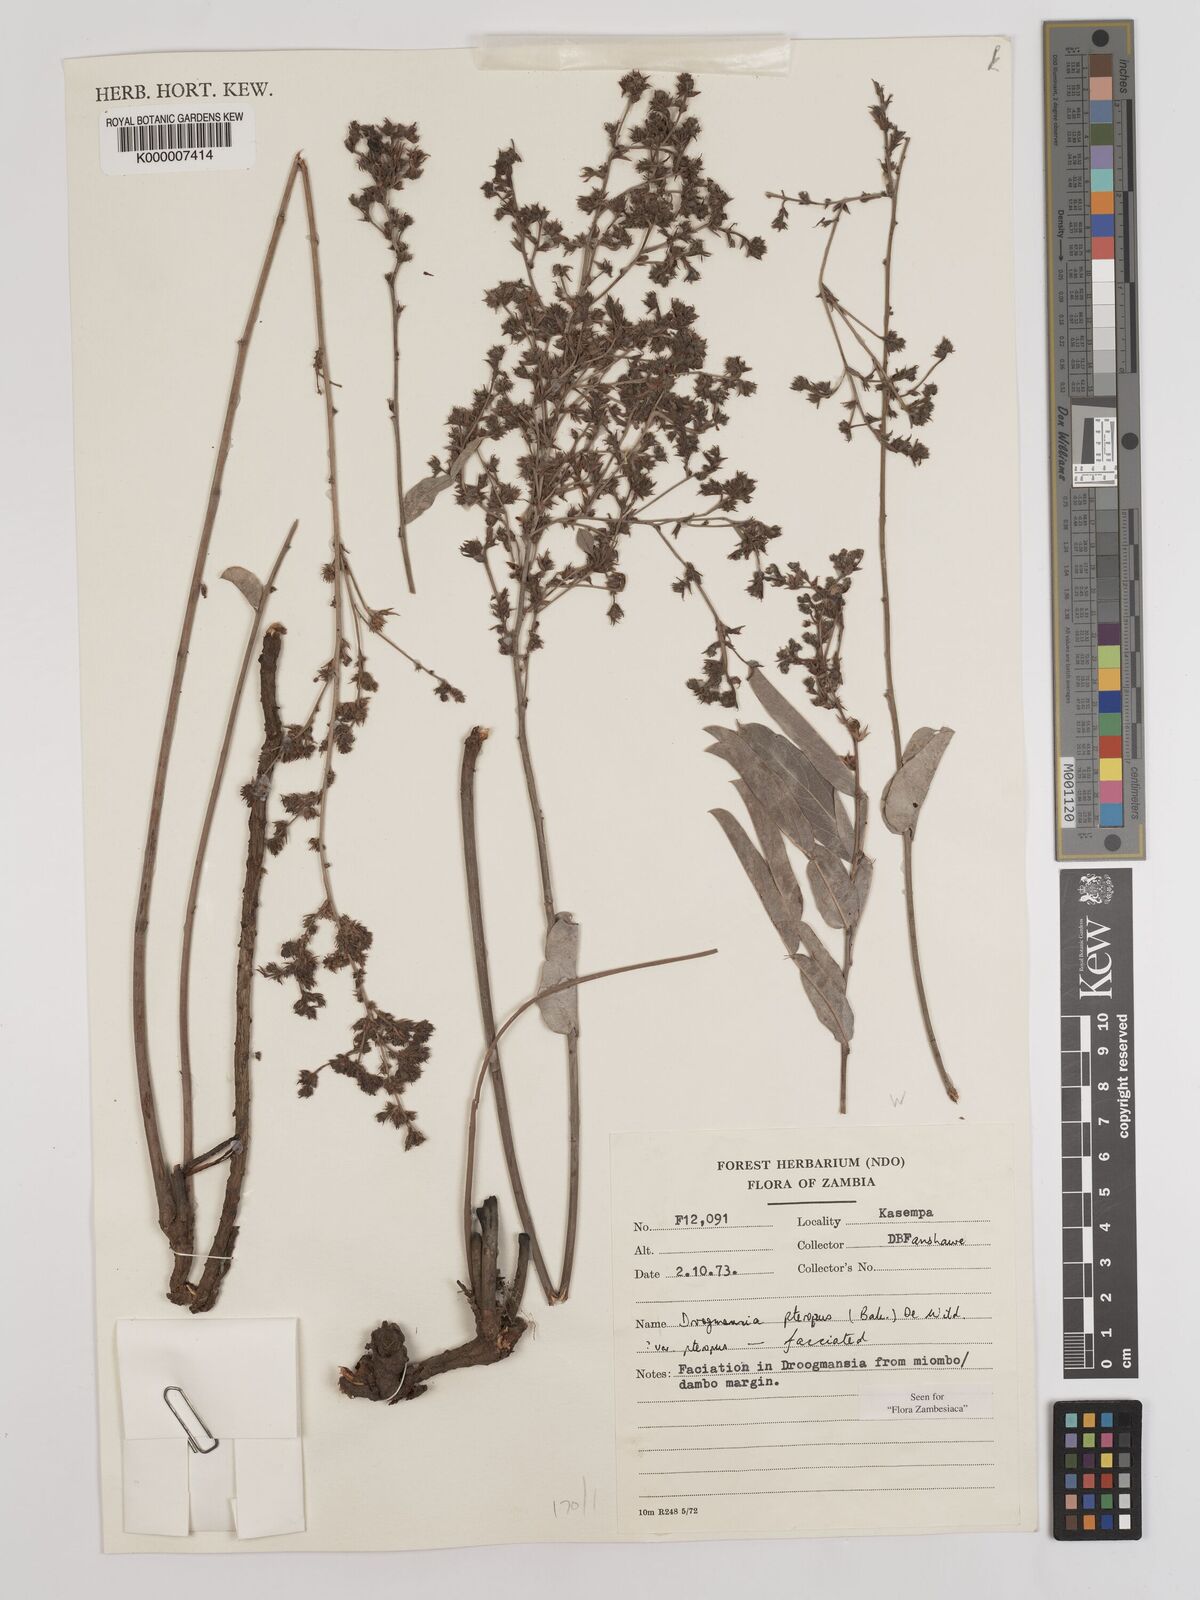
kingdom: Plantae
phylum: Tracheophyta
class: Magnoliopsida
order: Fabales
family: Fabaceae
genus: Droogmansia
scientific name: Droogmansia pteropus
